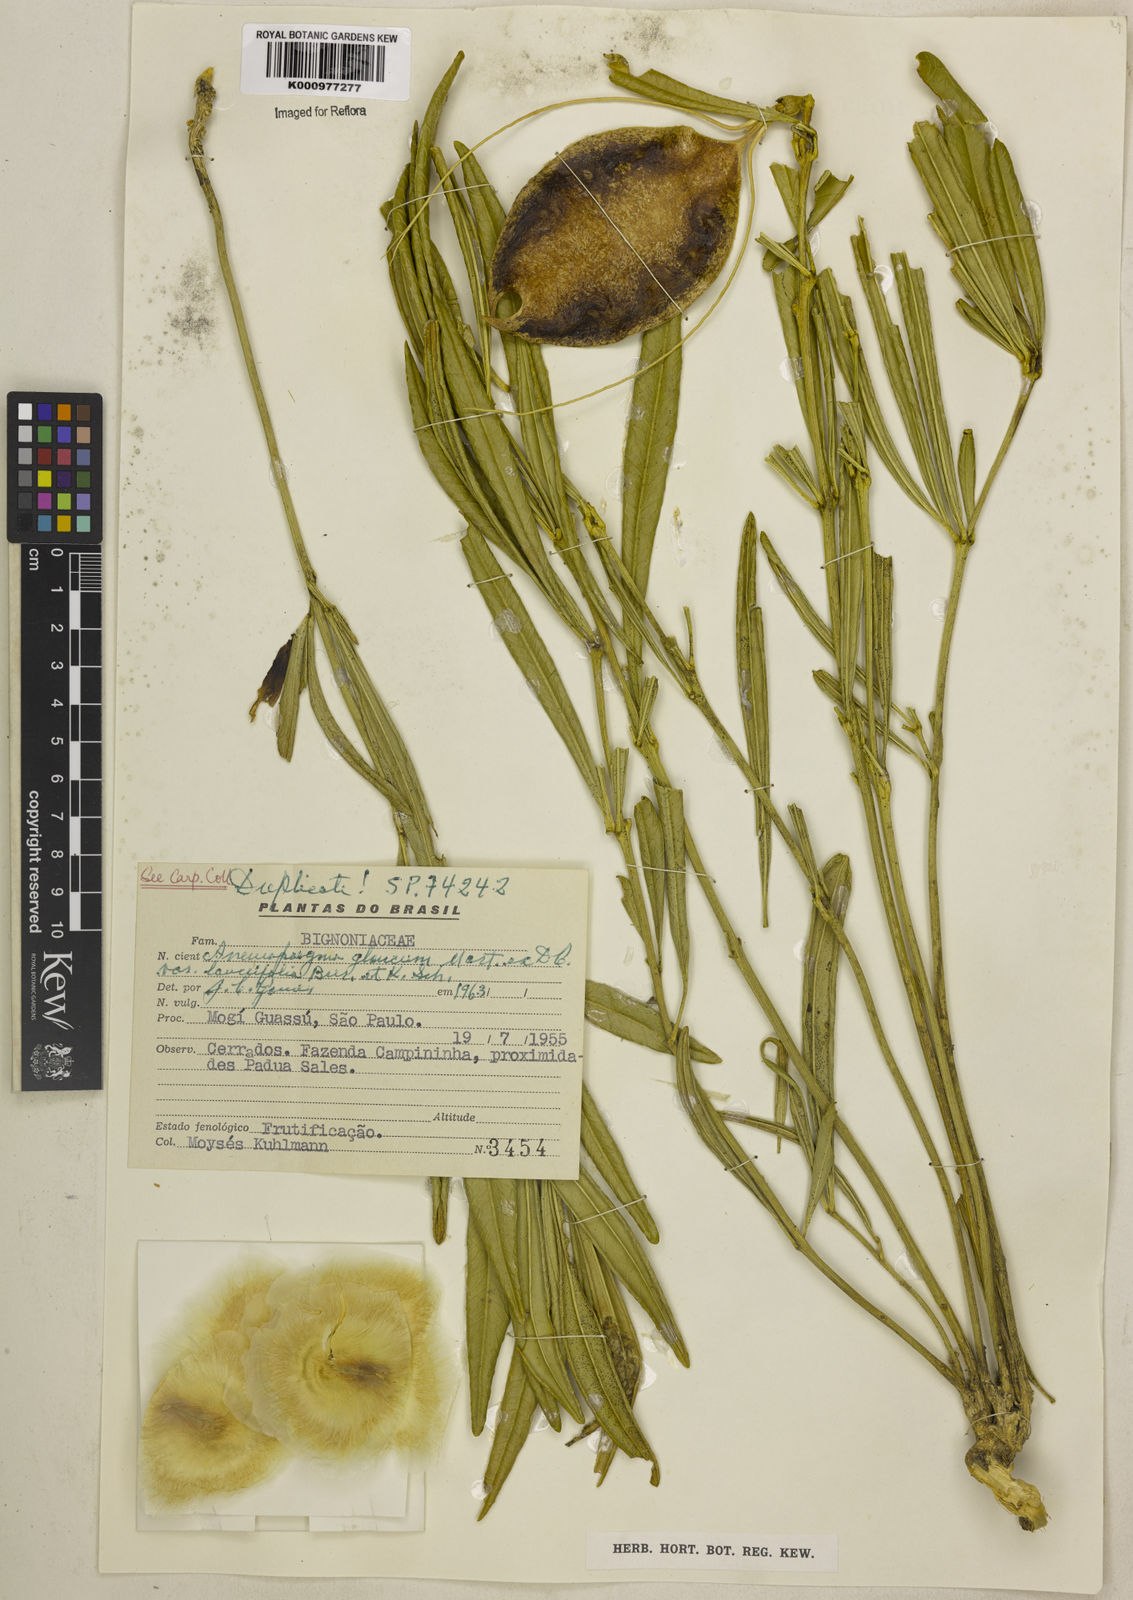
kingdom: Plantae
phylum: Tracheophyta
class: Magnoliopsida
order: Lamiales
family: Bignoniaceae
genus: Anemopaegma
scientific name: Anemopaegma arvense
